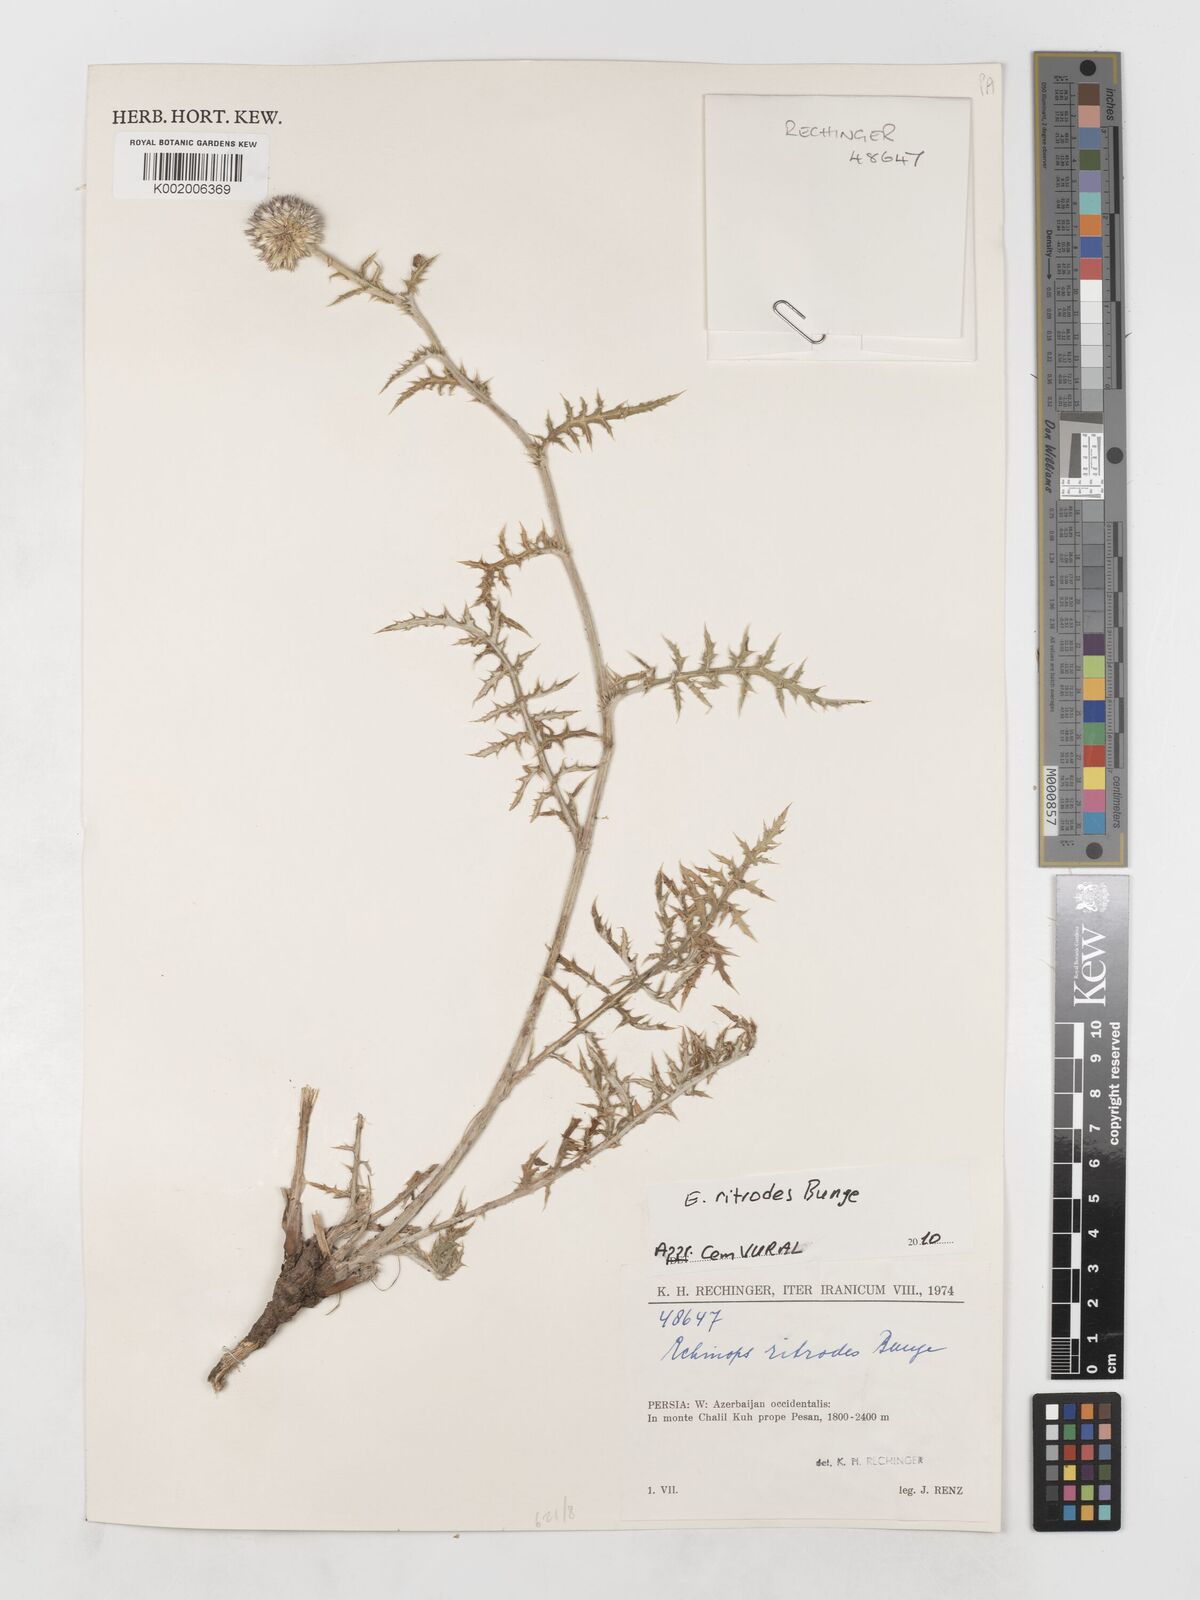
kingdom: Plantae
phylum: Tracheophyta
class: Magnoliopsida
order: Asterales
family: Asteraceae
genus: Echinops
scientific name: Echinops ritrodes
